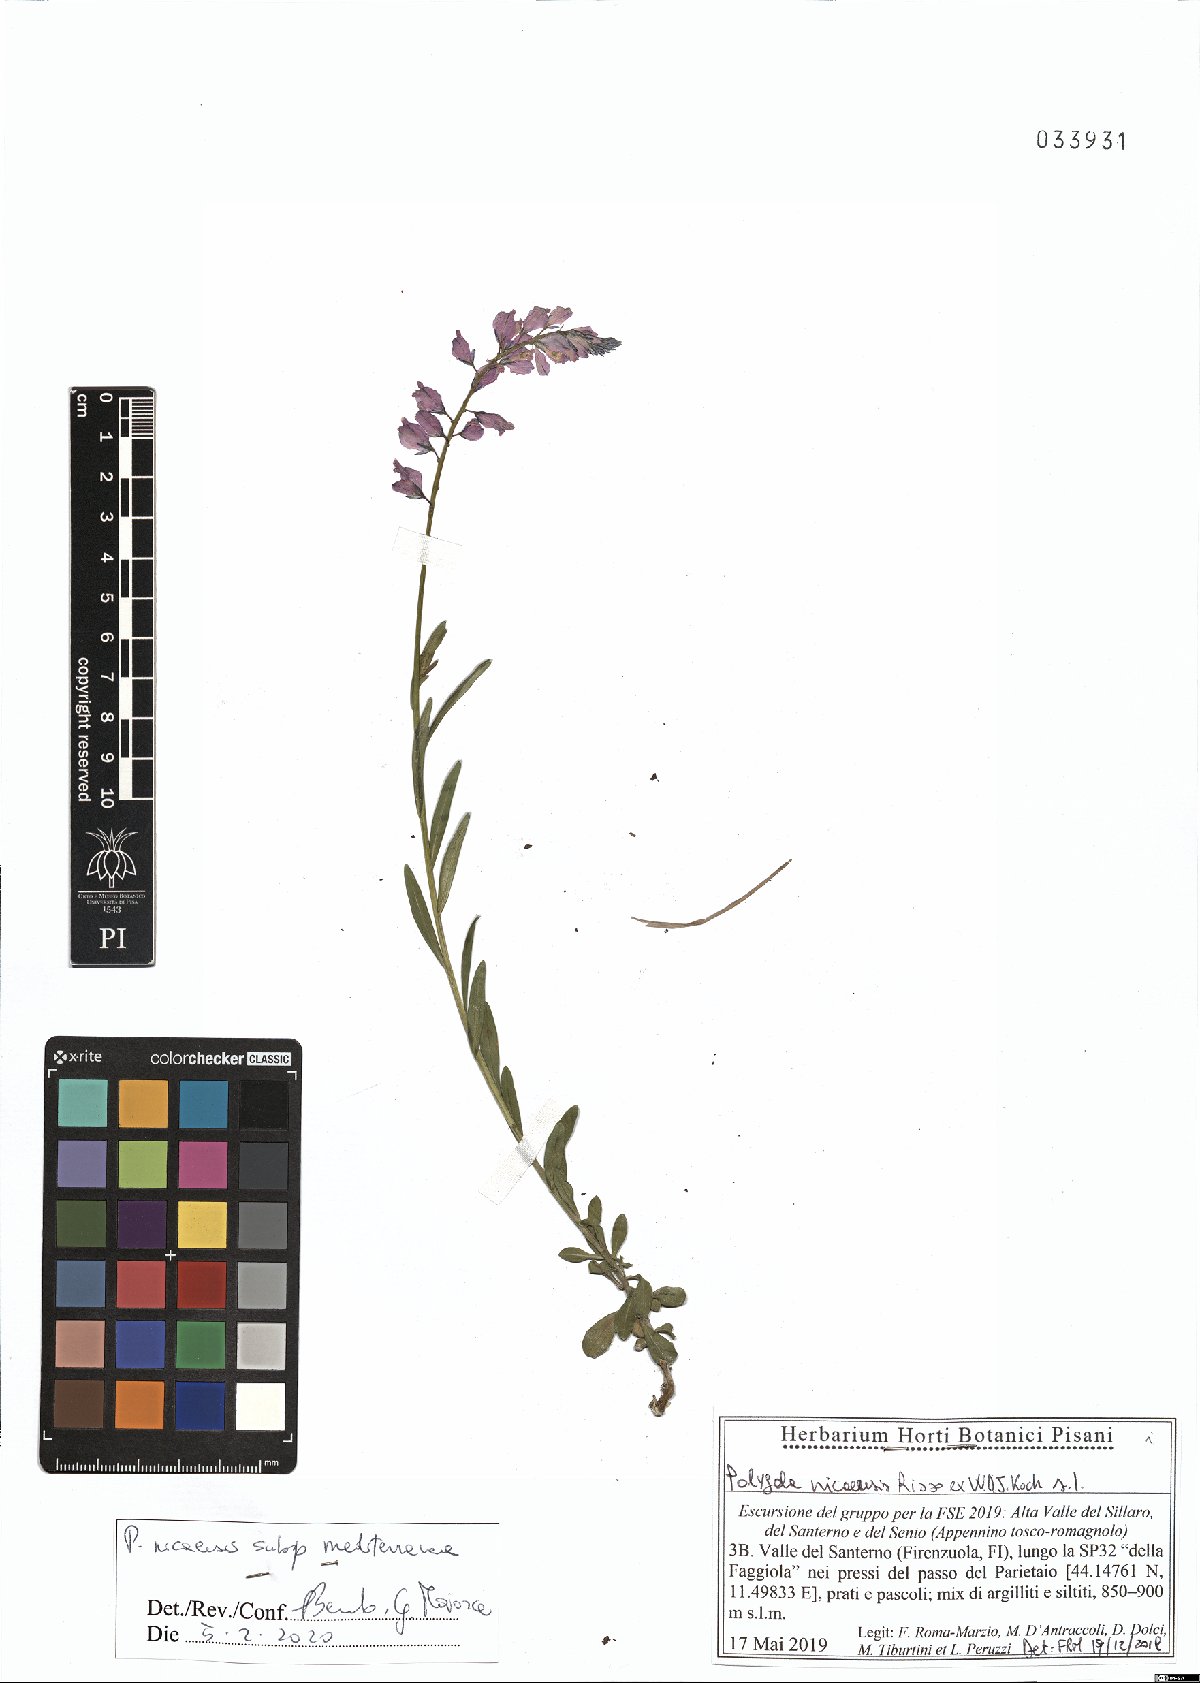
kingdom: Plantae
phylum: Tracheophyta
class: Magnoliopsida
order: Fabales
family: Polygalaceae
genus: Polygala
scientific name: Polygala nicaeensis
